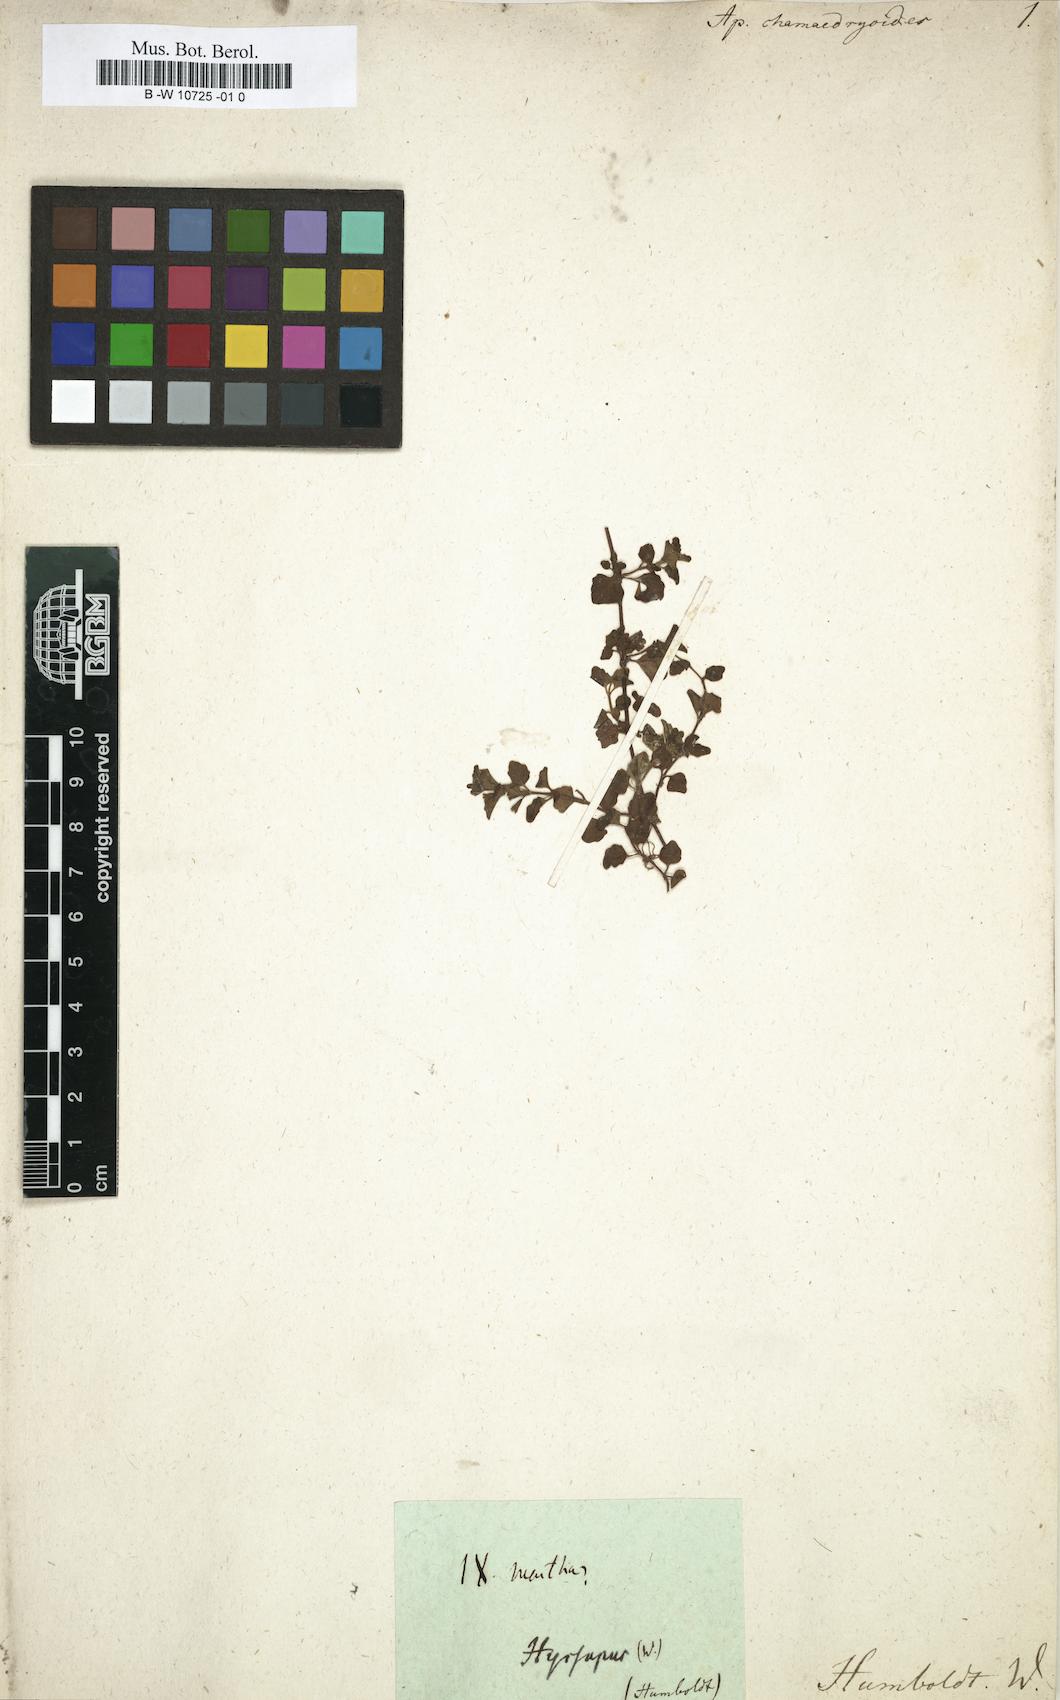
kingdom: Plantae
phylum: Tracheophyta
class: Magnoliopsida
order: Lamiales
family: Lamiaceae
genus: Clinopodium
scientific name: Clinopodium brownei
